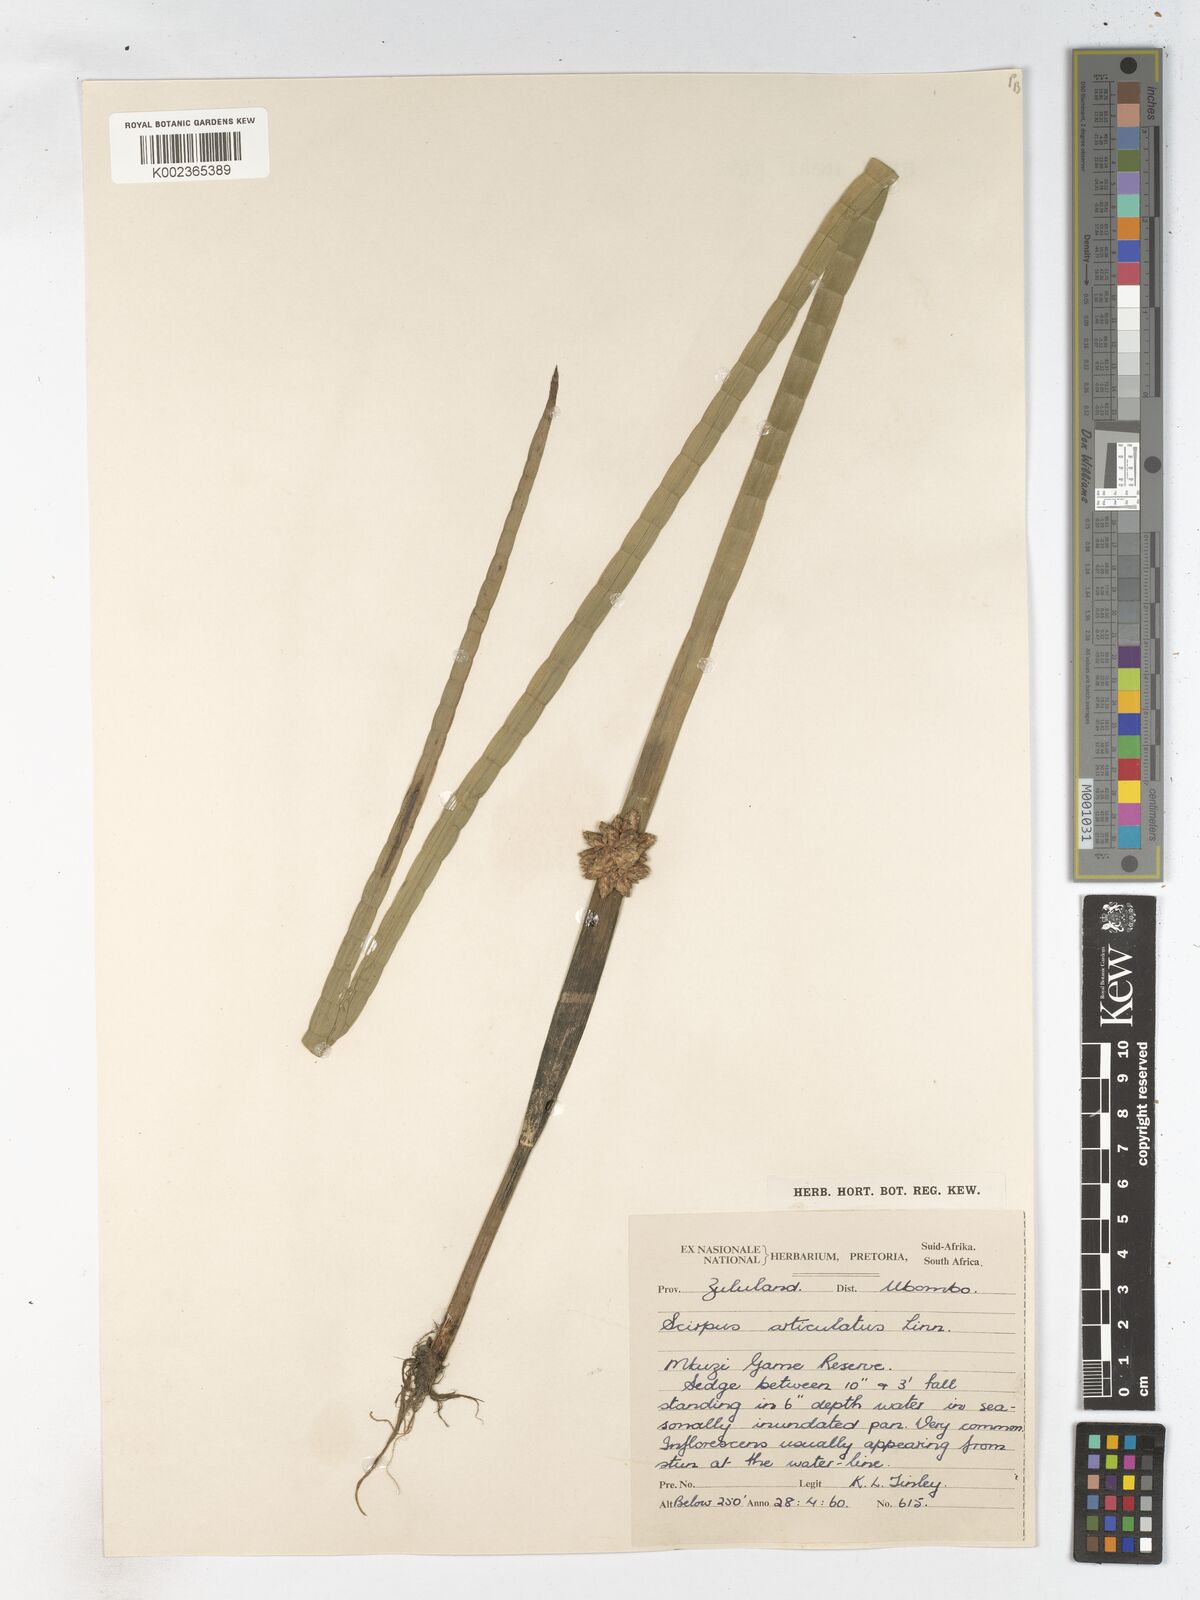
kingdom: Plantae
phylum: Tracheophyta
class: Liliopsida
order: Poales
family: Cyperaceae
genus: Schoenoplectiella
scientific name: Schoenoplectiella articulata
